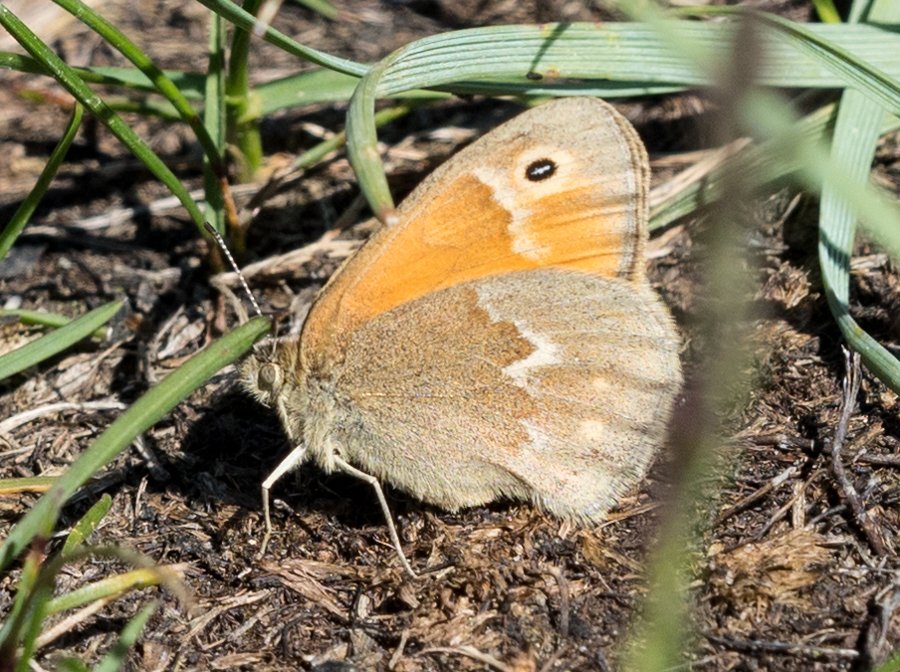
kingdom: Animalia
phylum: Arthropoda
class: Insecta
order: Lepidoptera
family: Nymphalidae
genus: Coenonympha
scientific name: Coenonympha tullia
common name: Large Heath
